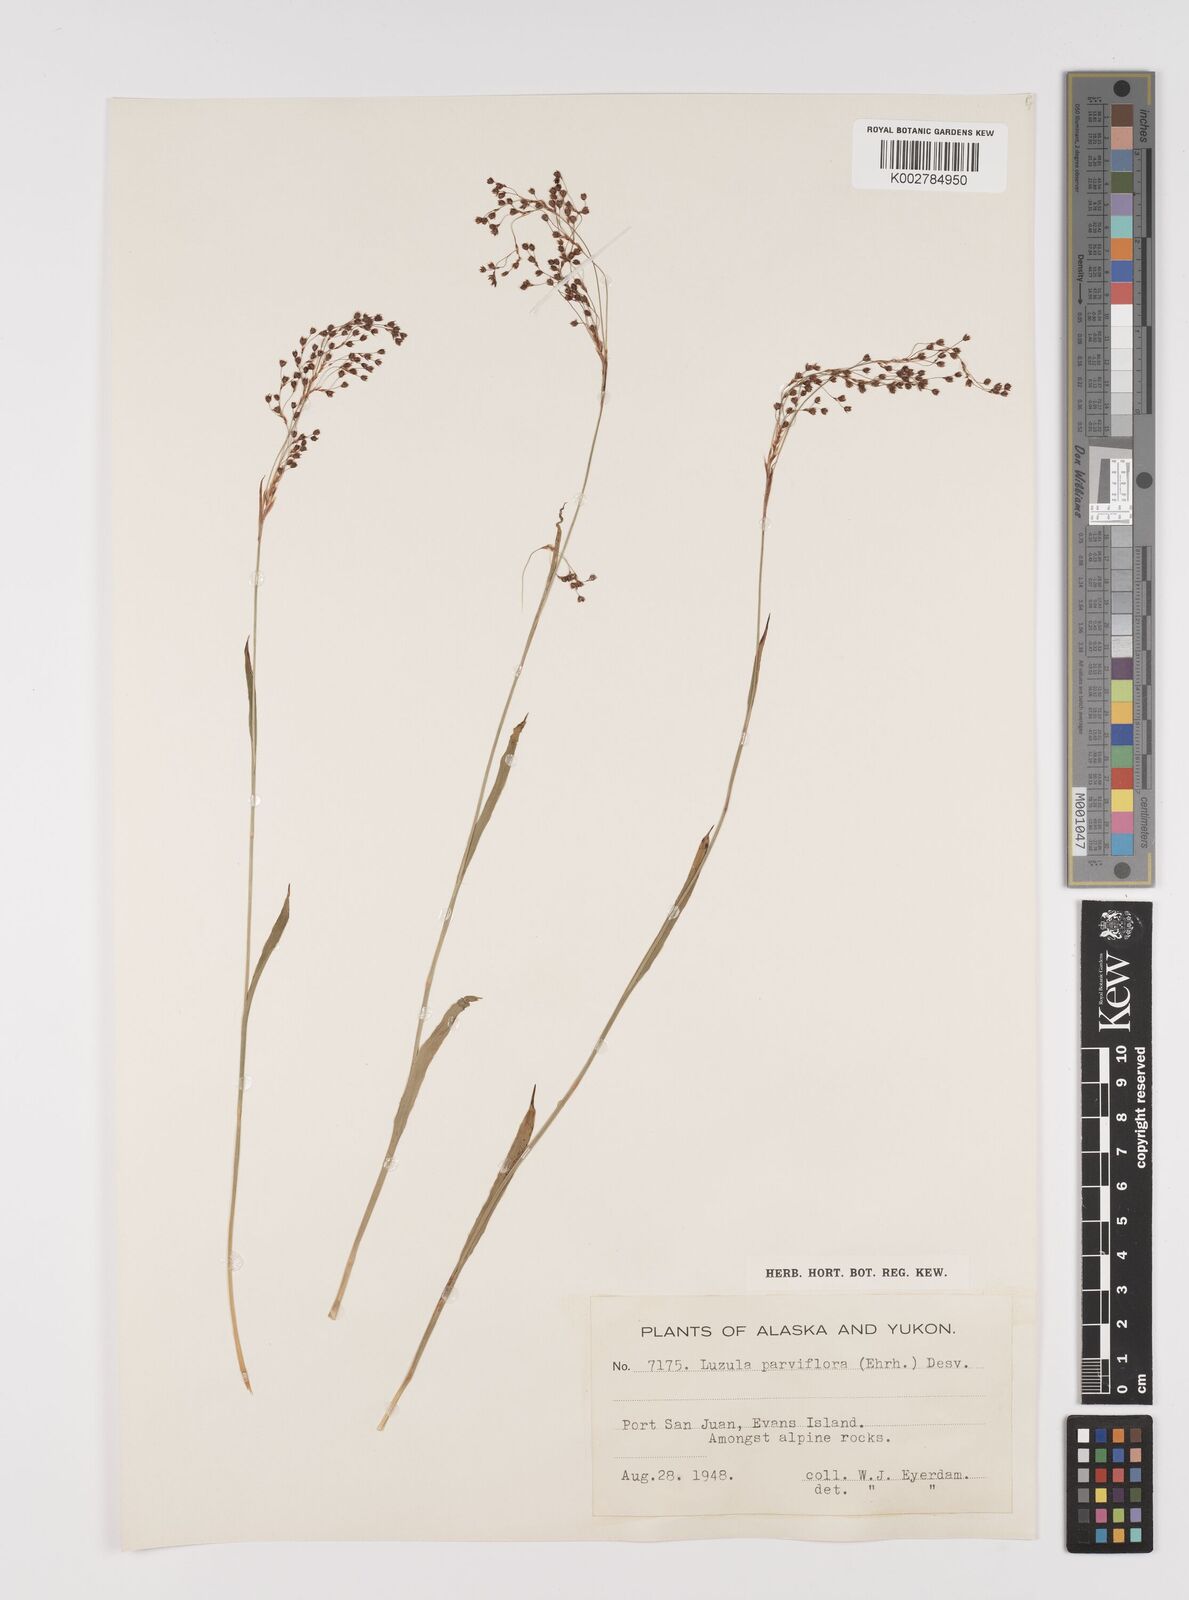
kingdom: Plantae
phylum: Tracheophyta
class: Liliopsida
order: Poales
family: Juncaceae
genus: Luzula
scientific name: Luzula parviflora
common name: Millet woodrush
